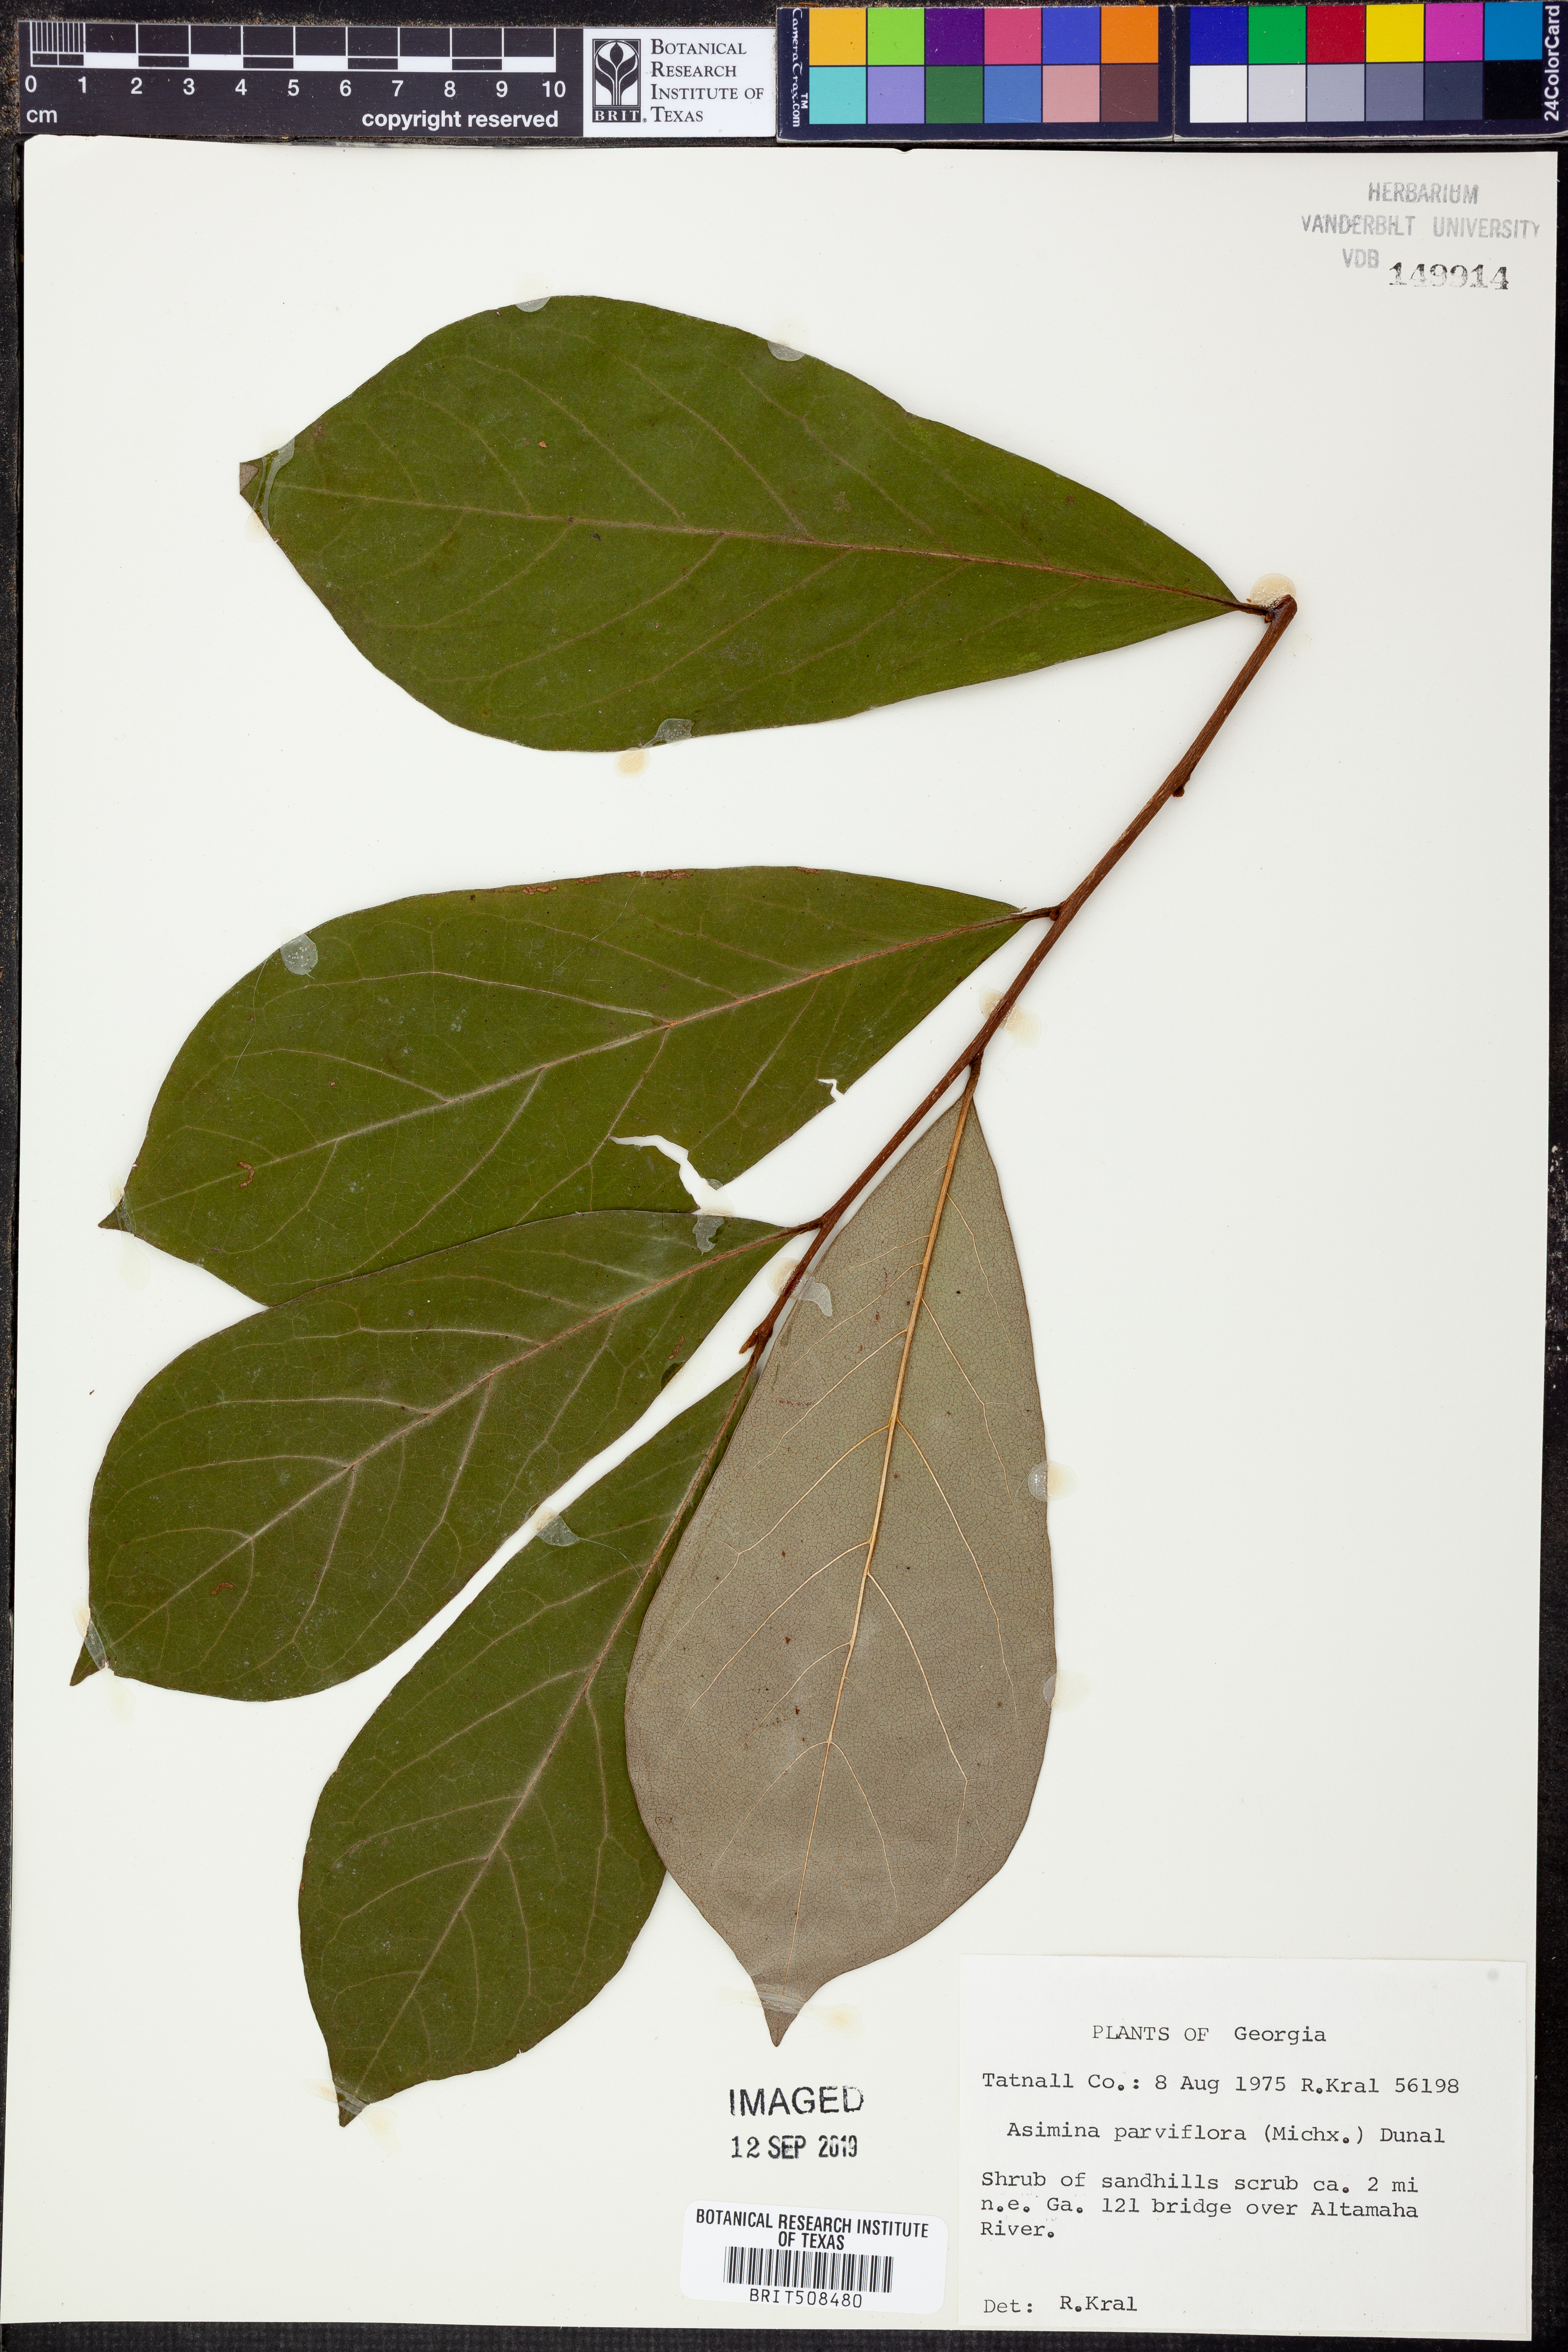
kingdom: Plantae
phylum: Tracheophyta
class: Magnoliopsida
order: Magnoliales
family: Annonaceae
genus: Asimina
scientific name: Asimina parviflora
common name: Dwarf pawpaw
